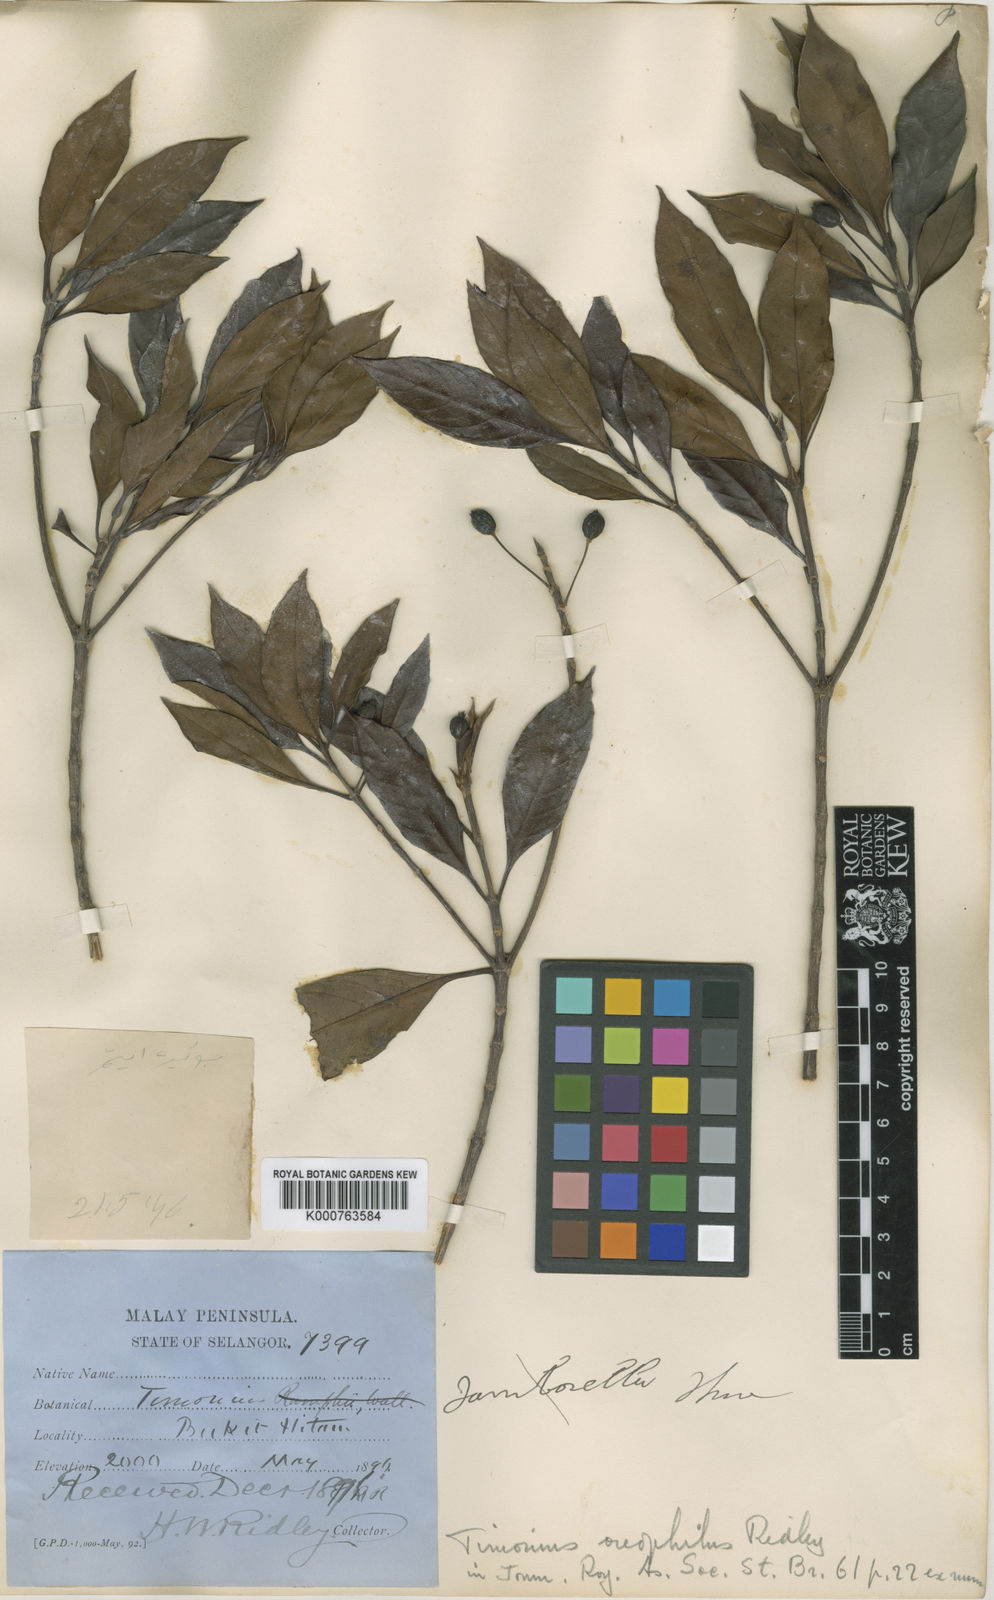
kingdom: Plantae
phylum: Tracheophyta
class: Magnoliopsida
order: Gentianales
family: Rubiaceae
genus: Timonius
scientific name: Timonius oreophilus
